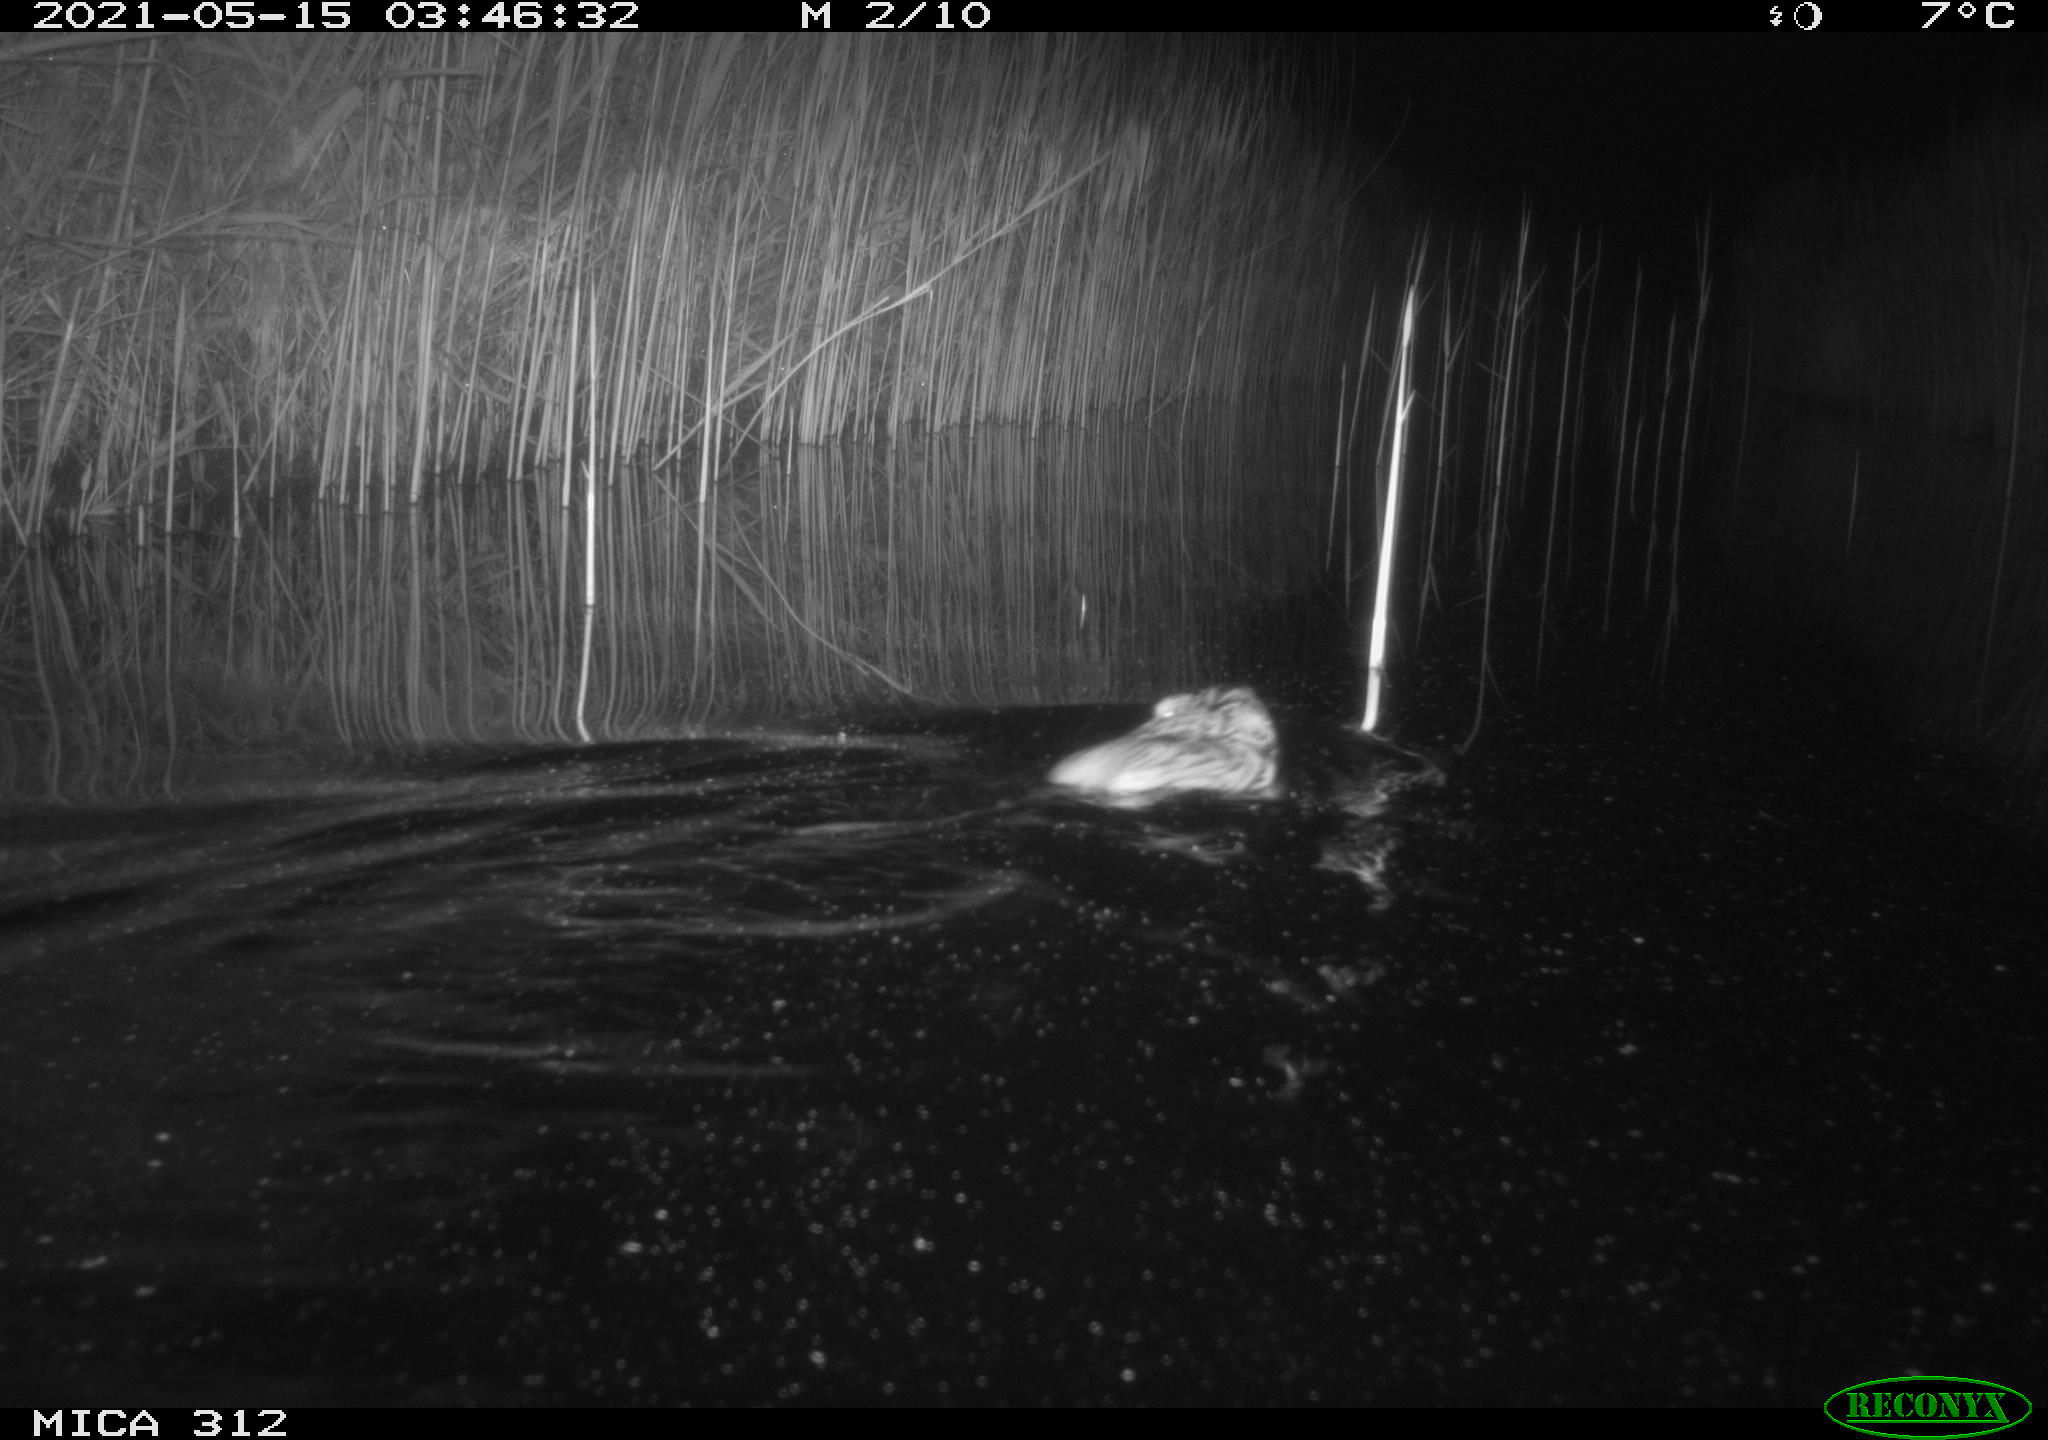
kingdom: Animalia
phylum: Chordata
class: Mammalia
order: Rodentia
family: Cricetidae
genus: Ondatra
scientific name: Ondatra zibethicus
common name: Muskrat
